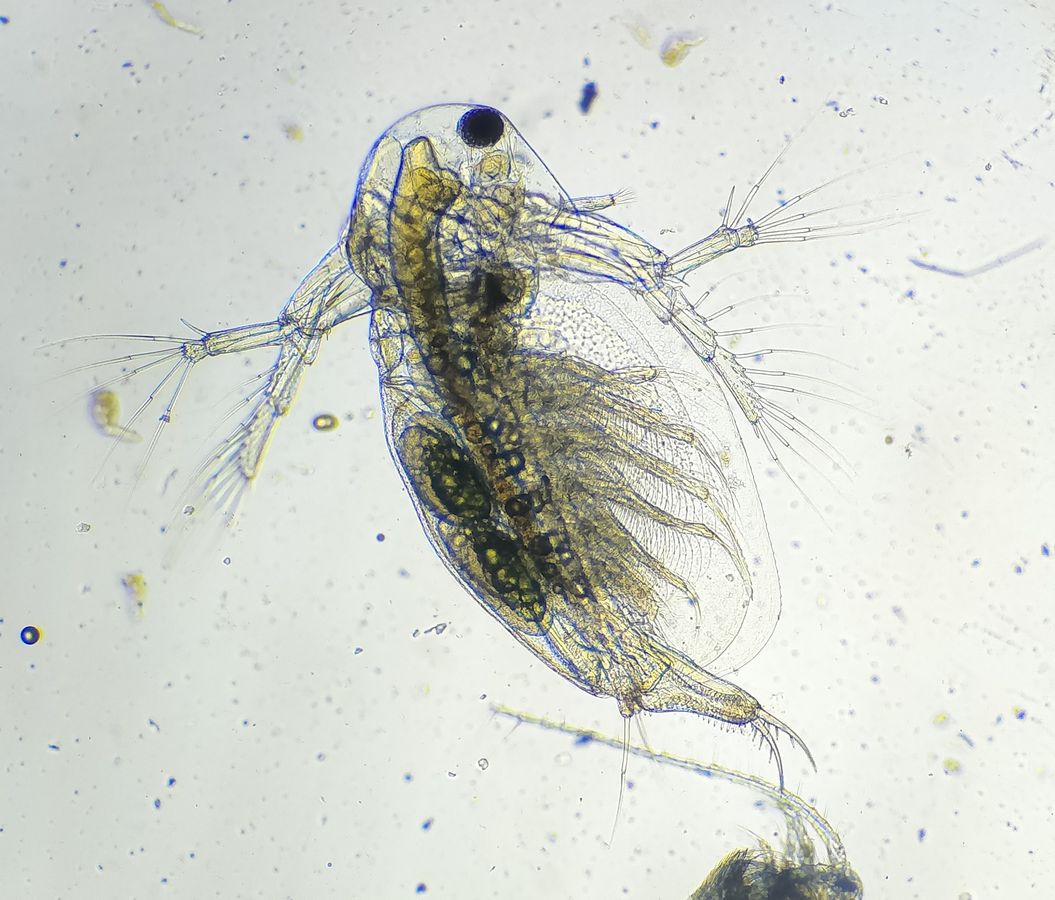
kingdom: Animalia
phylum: Arthropoda
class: Branchiopoda
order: Diplostraca
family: Sididae
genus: Sida
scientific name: Sida crystallina
